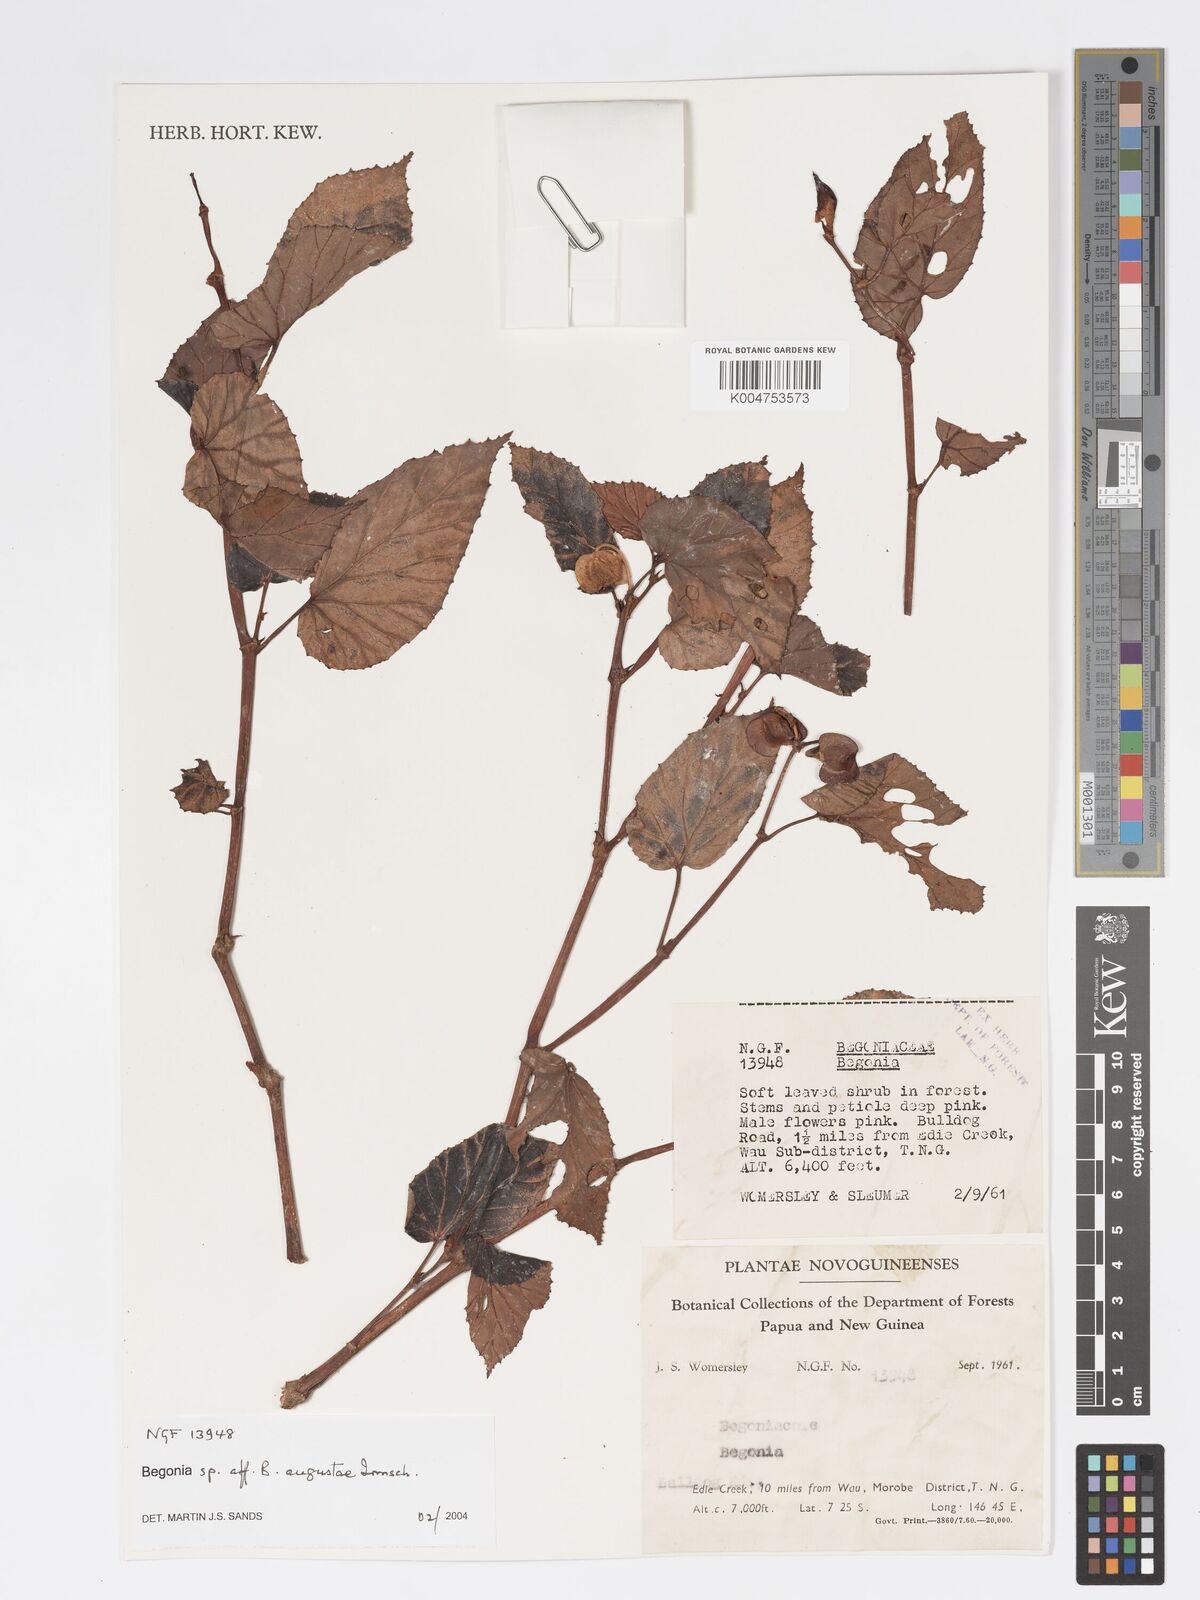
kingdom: Plantae
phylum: Tracheophyta
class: Magnoliopsida
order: Cucurbitales
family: Begoniaceae
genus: Begonia
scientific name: Begonia augustae
